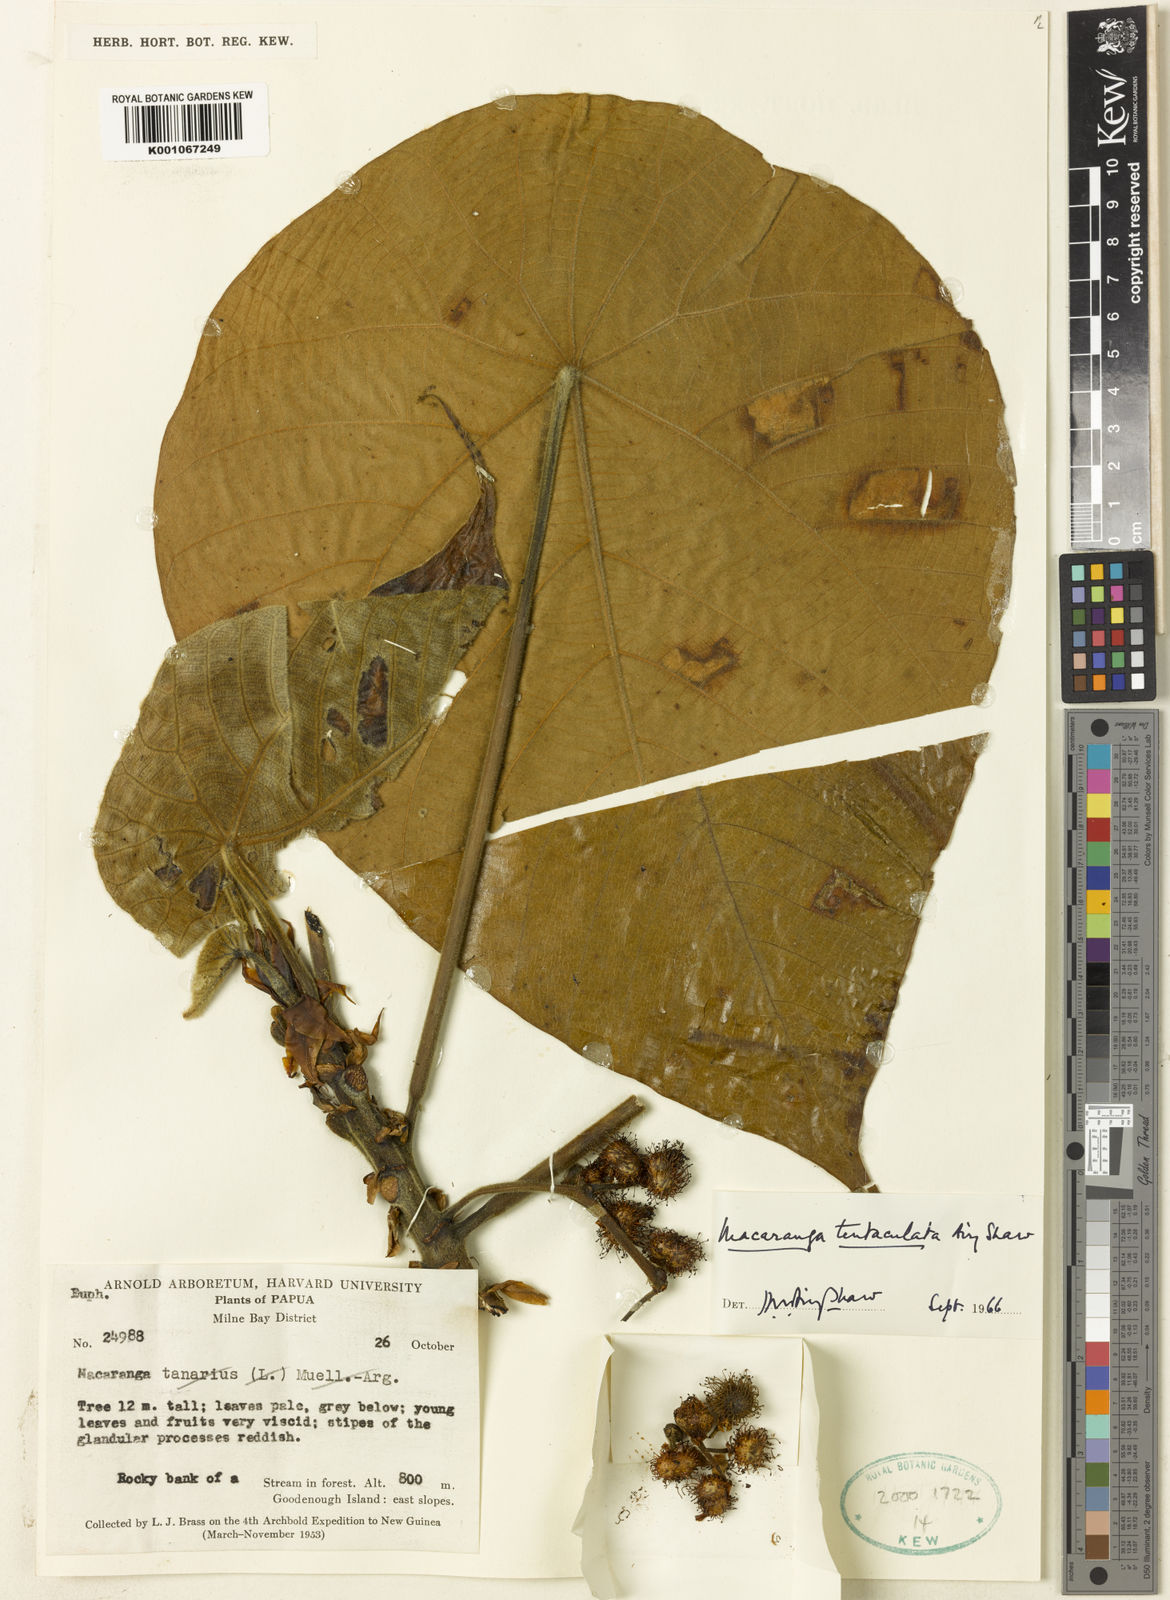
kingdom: Plantae
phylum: Tracheophyta
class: Magnoliopsida
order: Malpighiales
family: Euphorbiaceae
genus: Macaranga
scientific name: Macaranga tanarius
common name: Parasol leaf tree
